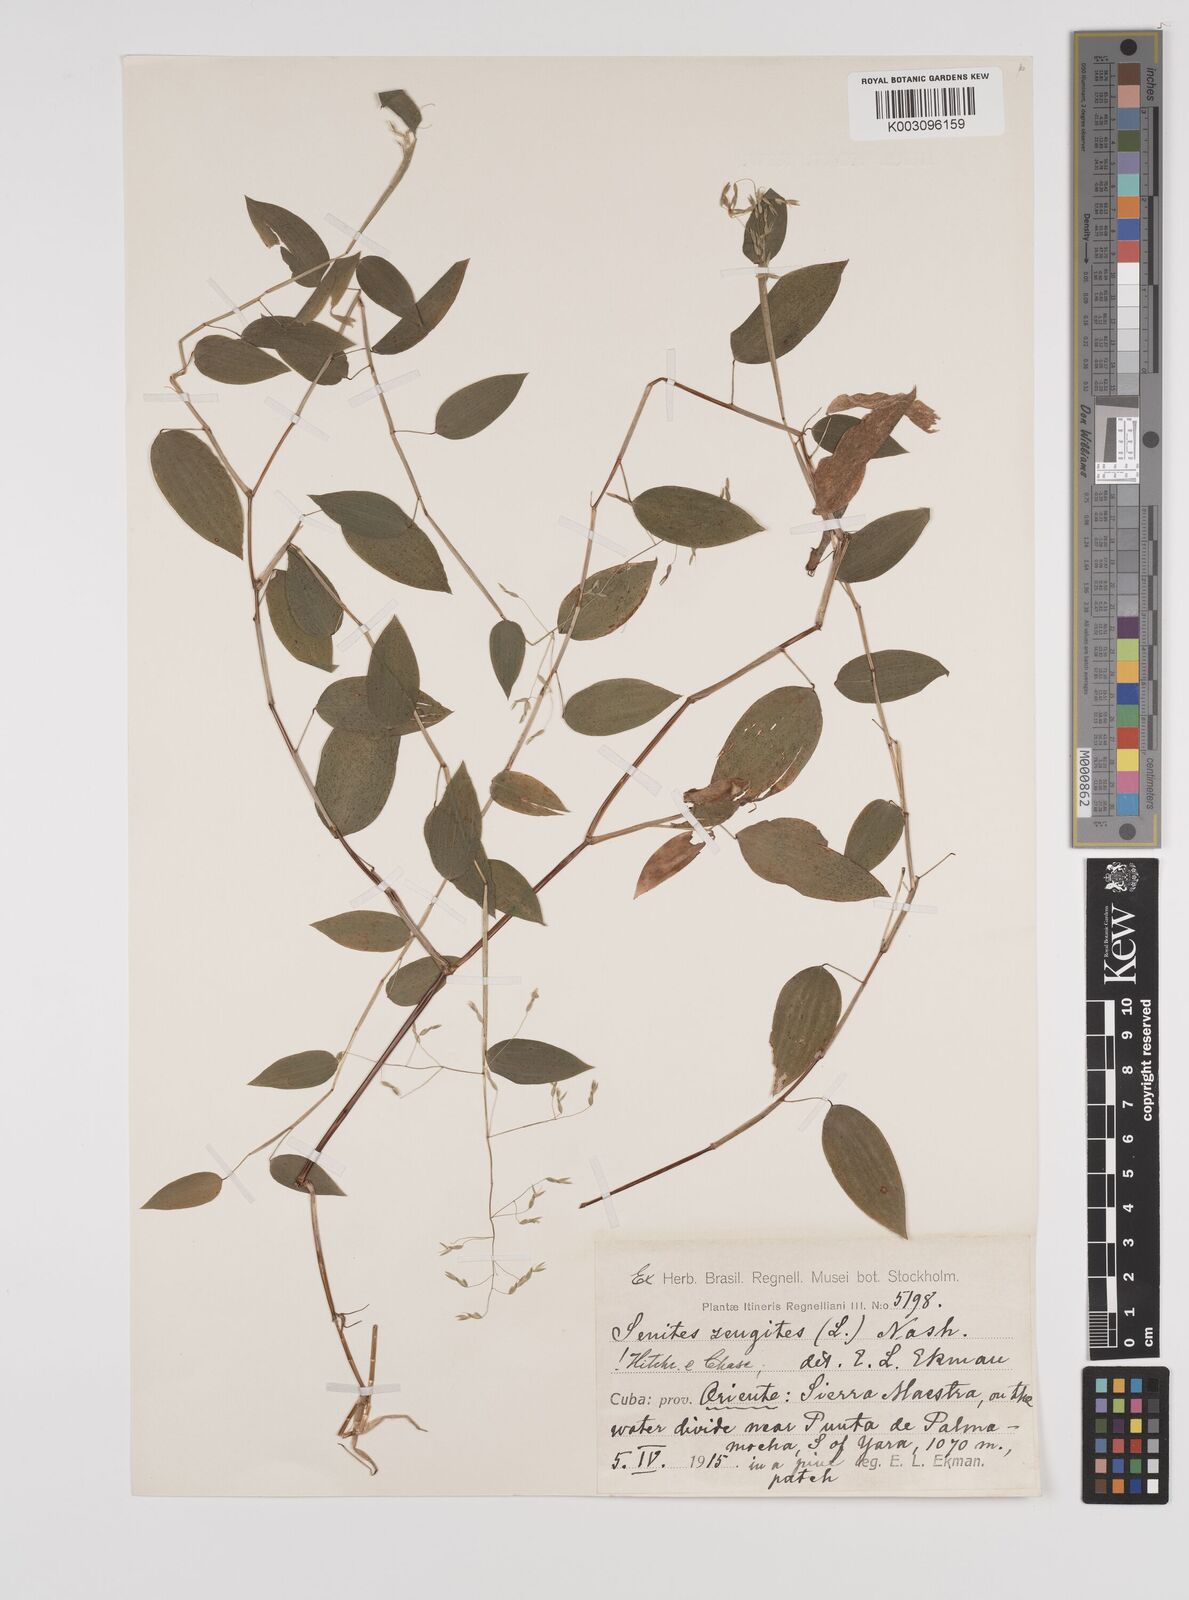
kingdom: Plantae
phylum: Tracheophyta
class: Liliopsida
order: Poales
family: Poaceae
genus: Zeugites
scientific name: Zeugites americanus
